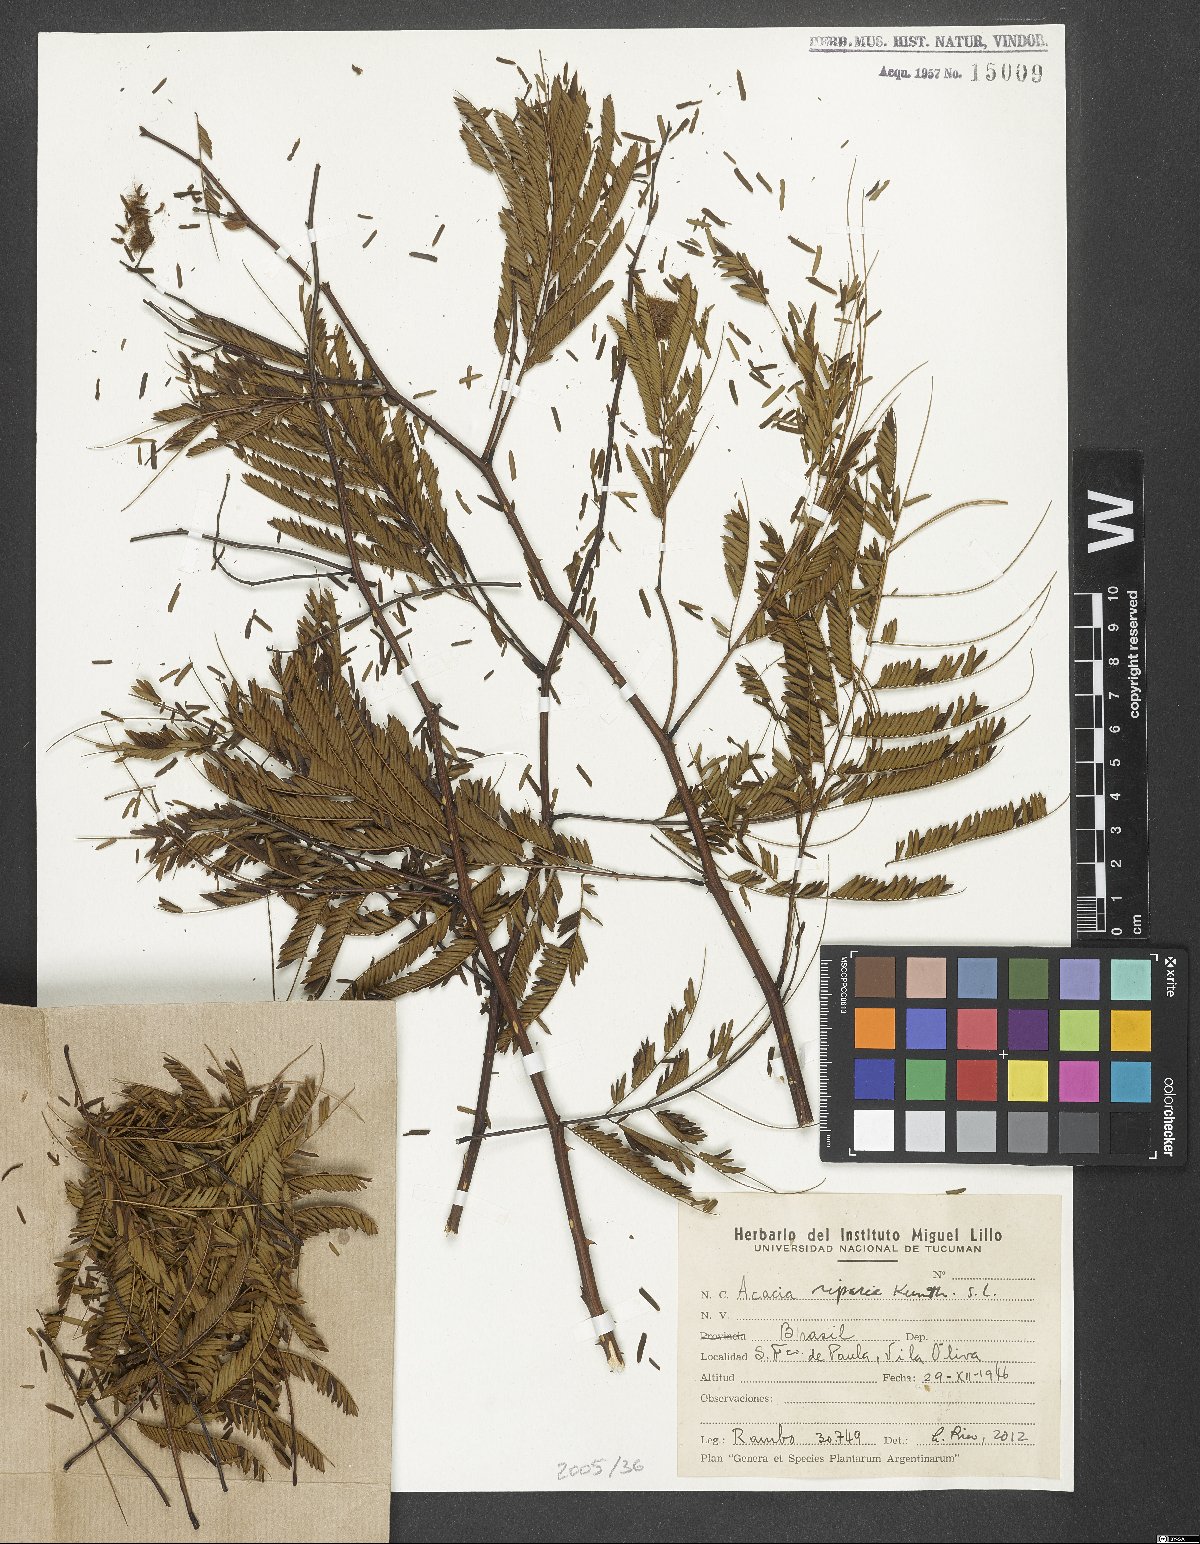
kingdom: Plantae
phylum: Tracheophyta
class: Magnoliopsida
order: Fabales
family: Fabaceae
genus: Senegalia
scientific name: Senegalia riparia
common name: Catch-and-keep
